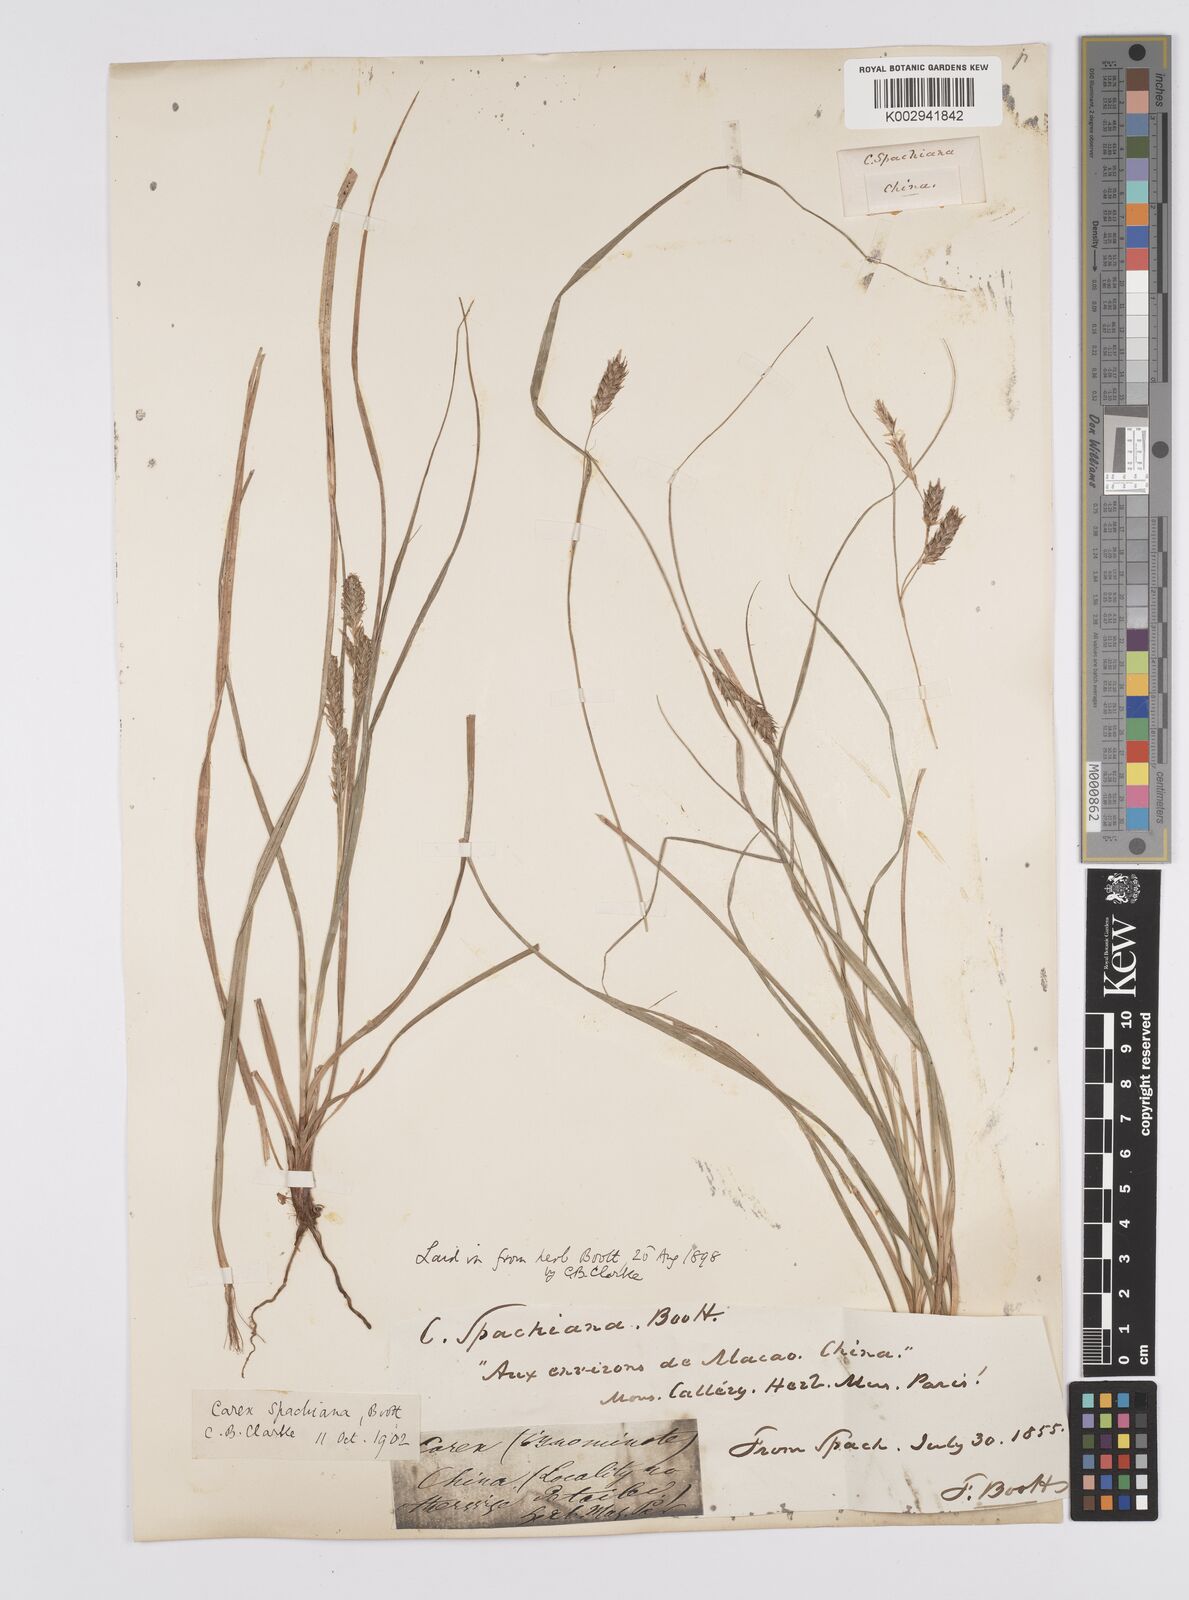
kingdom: Plantae
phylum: Tracheophyta
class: Liliopsida
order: Poales
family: Cyperaceae
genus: Carex
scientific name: Carex spachiana
